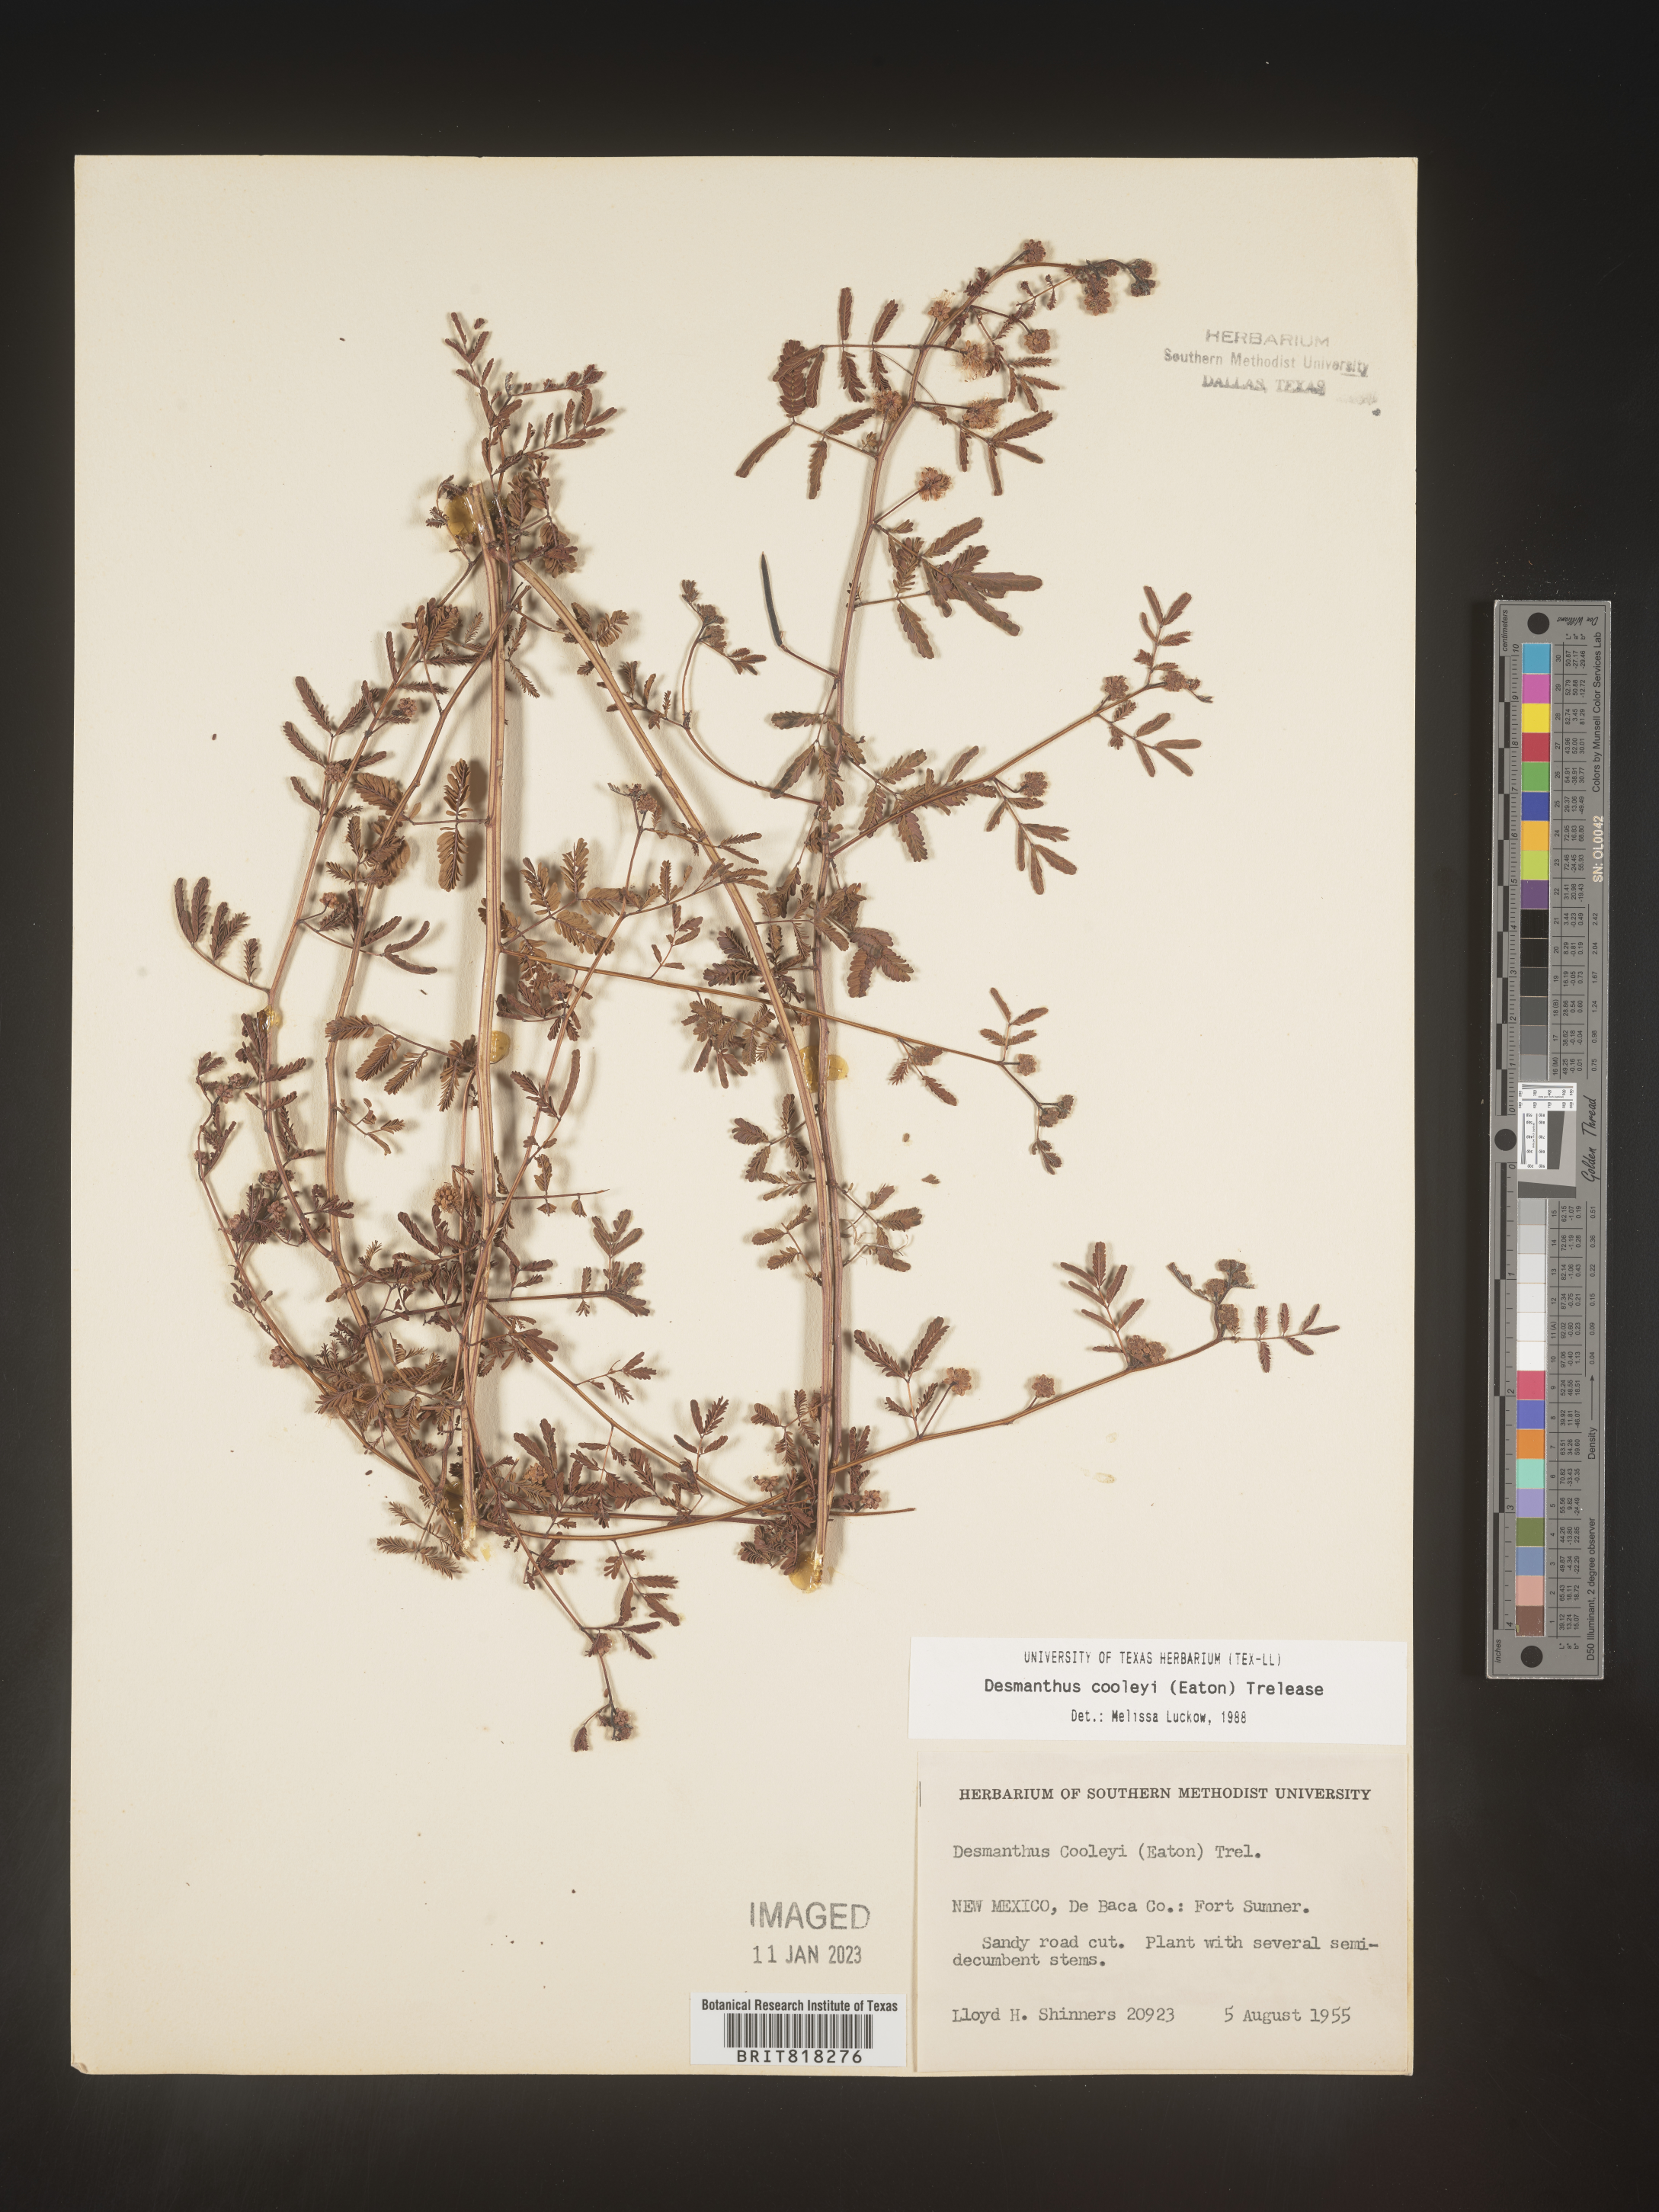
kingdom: Plantae
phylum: Tracheophyta
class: Magnoliopsida
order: Fabales
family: Fabaceae
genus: Desmanthus
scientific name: Desmanthus cooleyi
